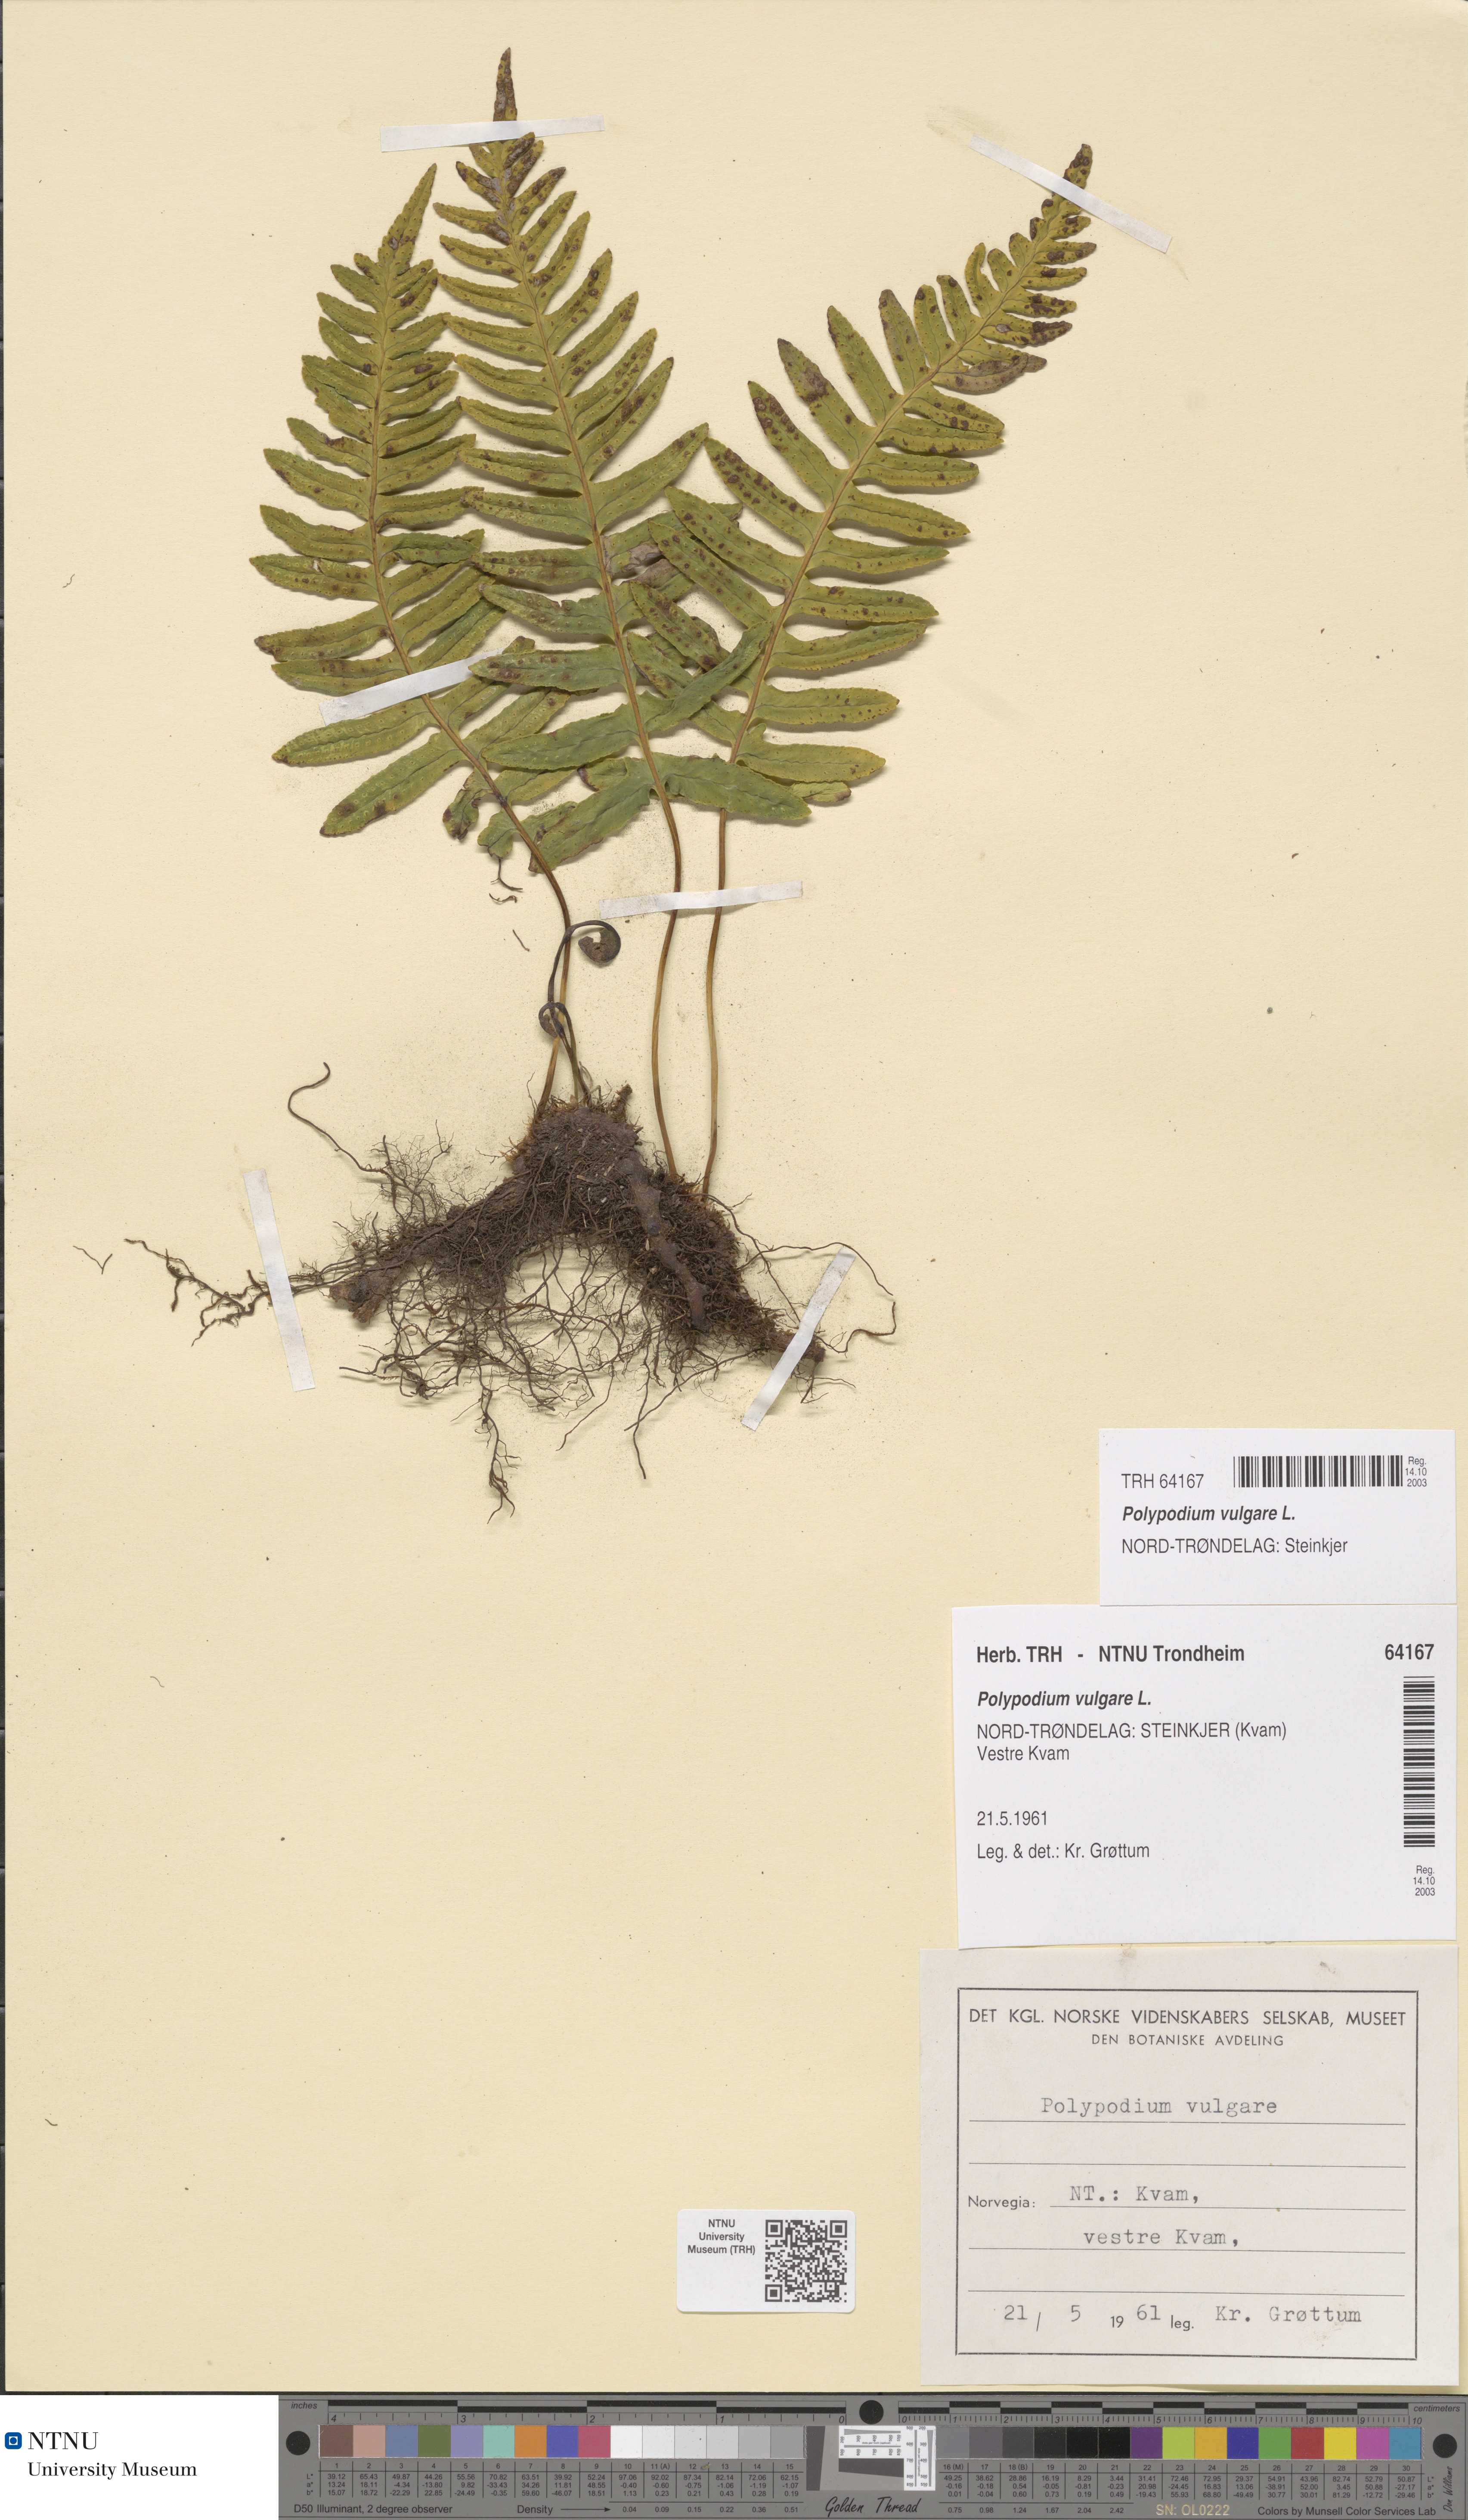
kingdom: Plantae
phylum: Tracheophyta
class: Polypodiopsida
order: Polypodiales
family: Polypodiaceae
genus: Polypodium
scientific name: Polypodium vulgare
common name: Common polypody
